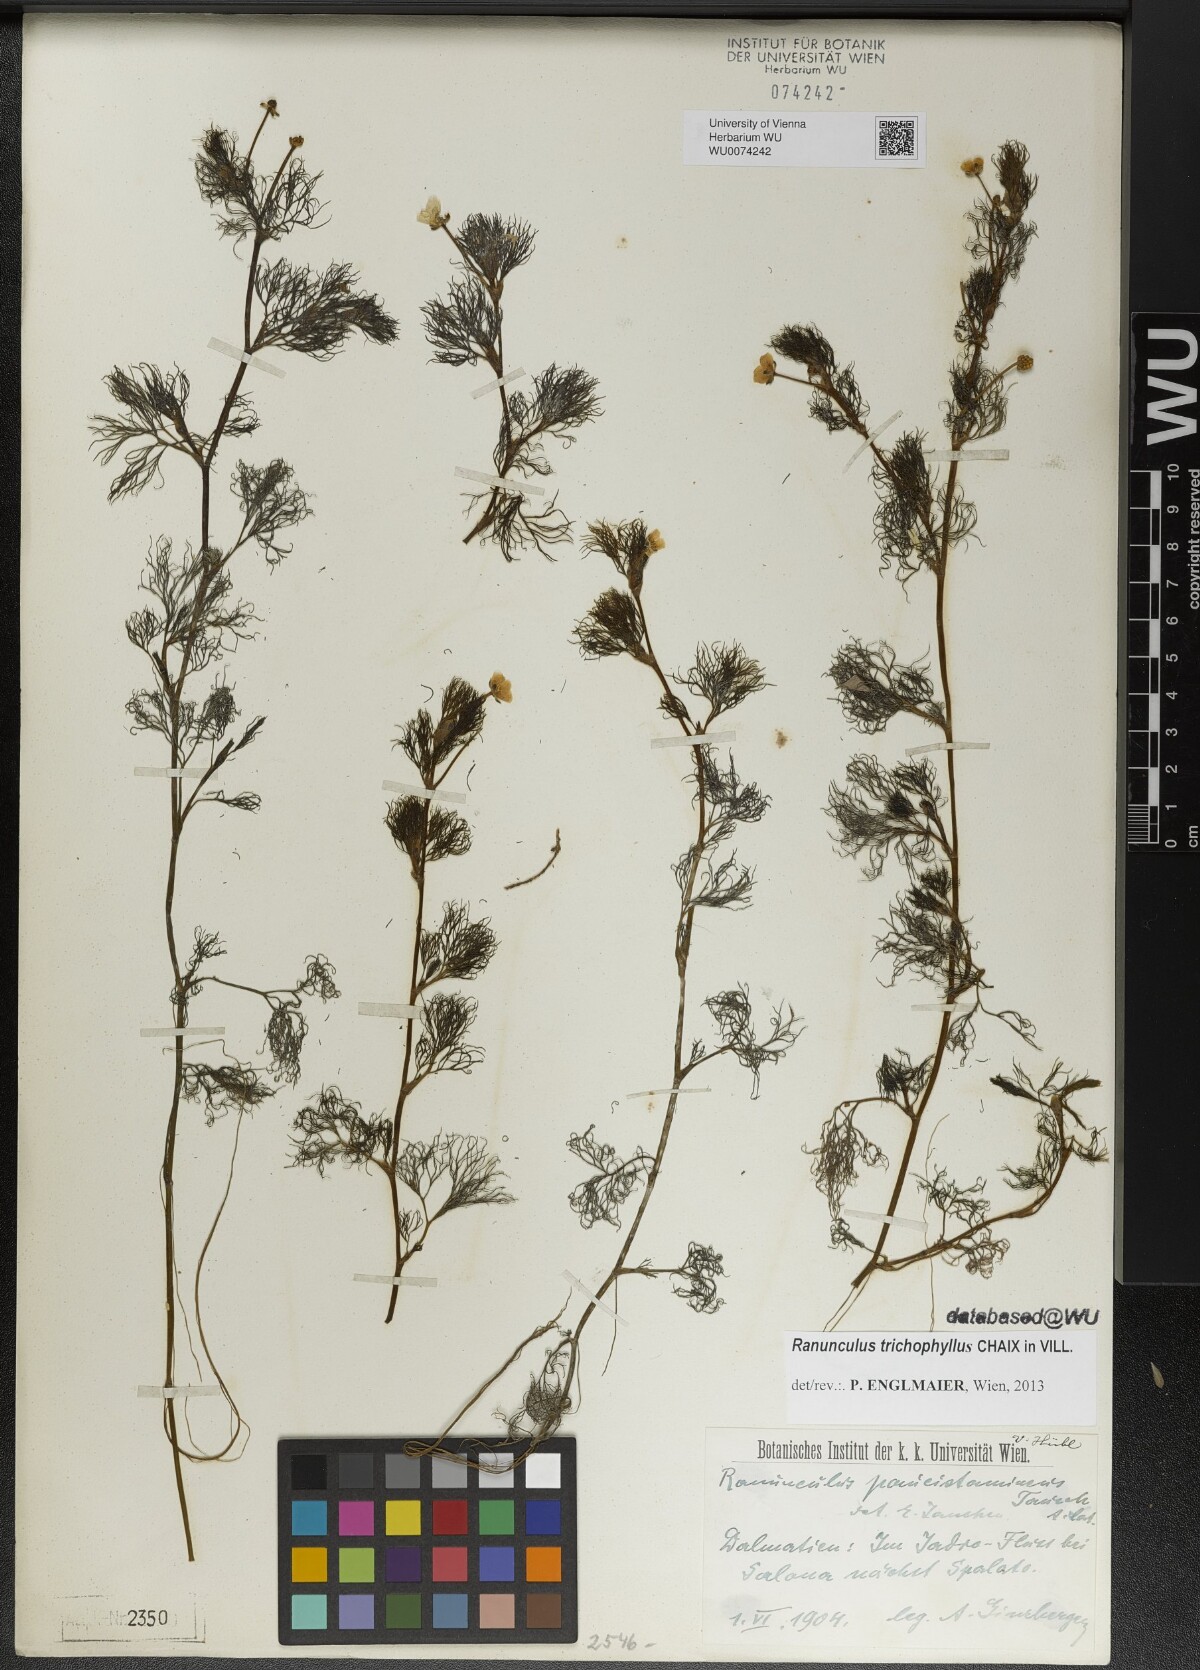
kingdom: Plantae
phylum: Tracheophyta
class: Magnoliopsida
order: Ranunculales
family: Ranunculaceae
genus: Ranunculus
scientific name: Ranunculus trichophyllus
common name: Thread-leaved water-crowfoot
